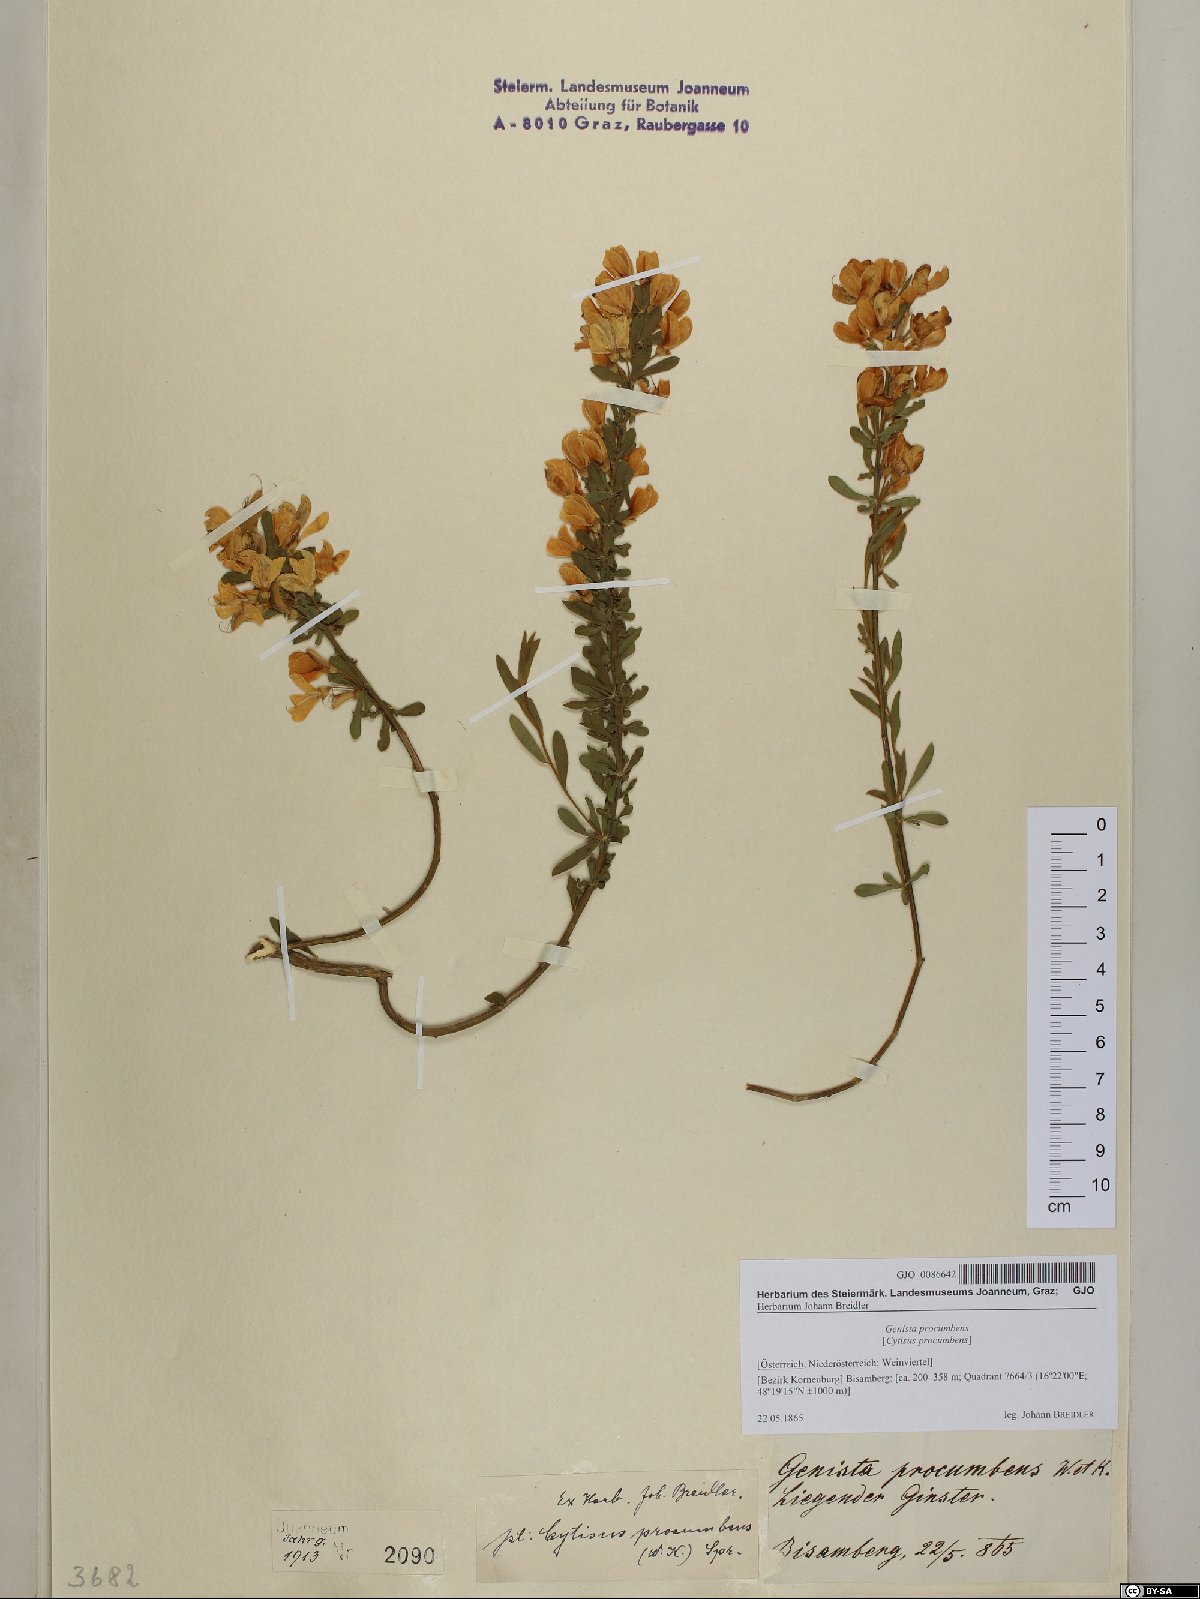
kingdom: Plantae
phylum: Tracheophyta
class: Magnoliopsida
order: Fabales
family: Fabaceae
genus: Cytisus
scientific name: Cytisus procumbens
